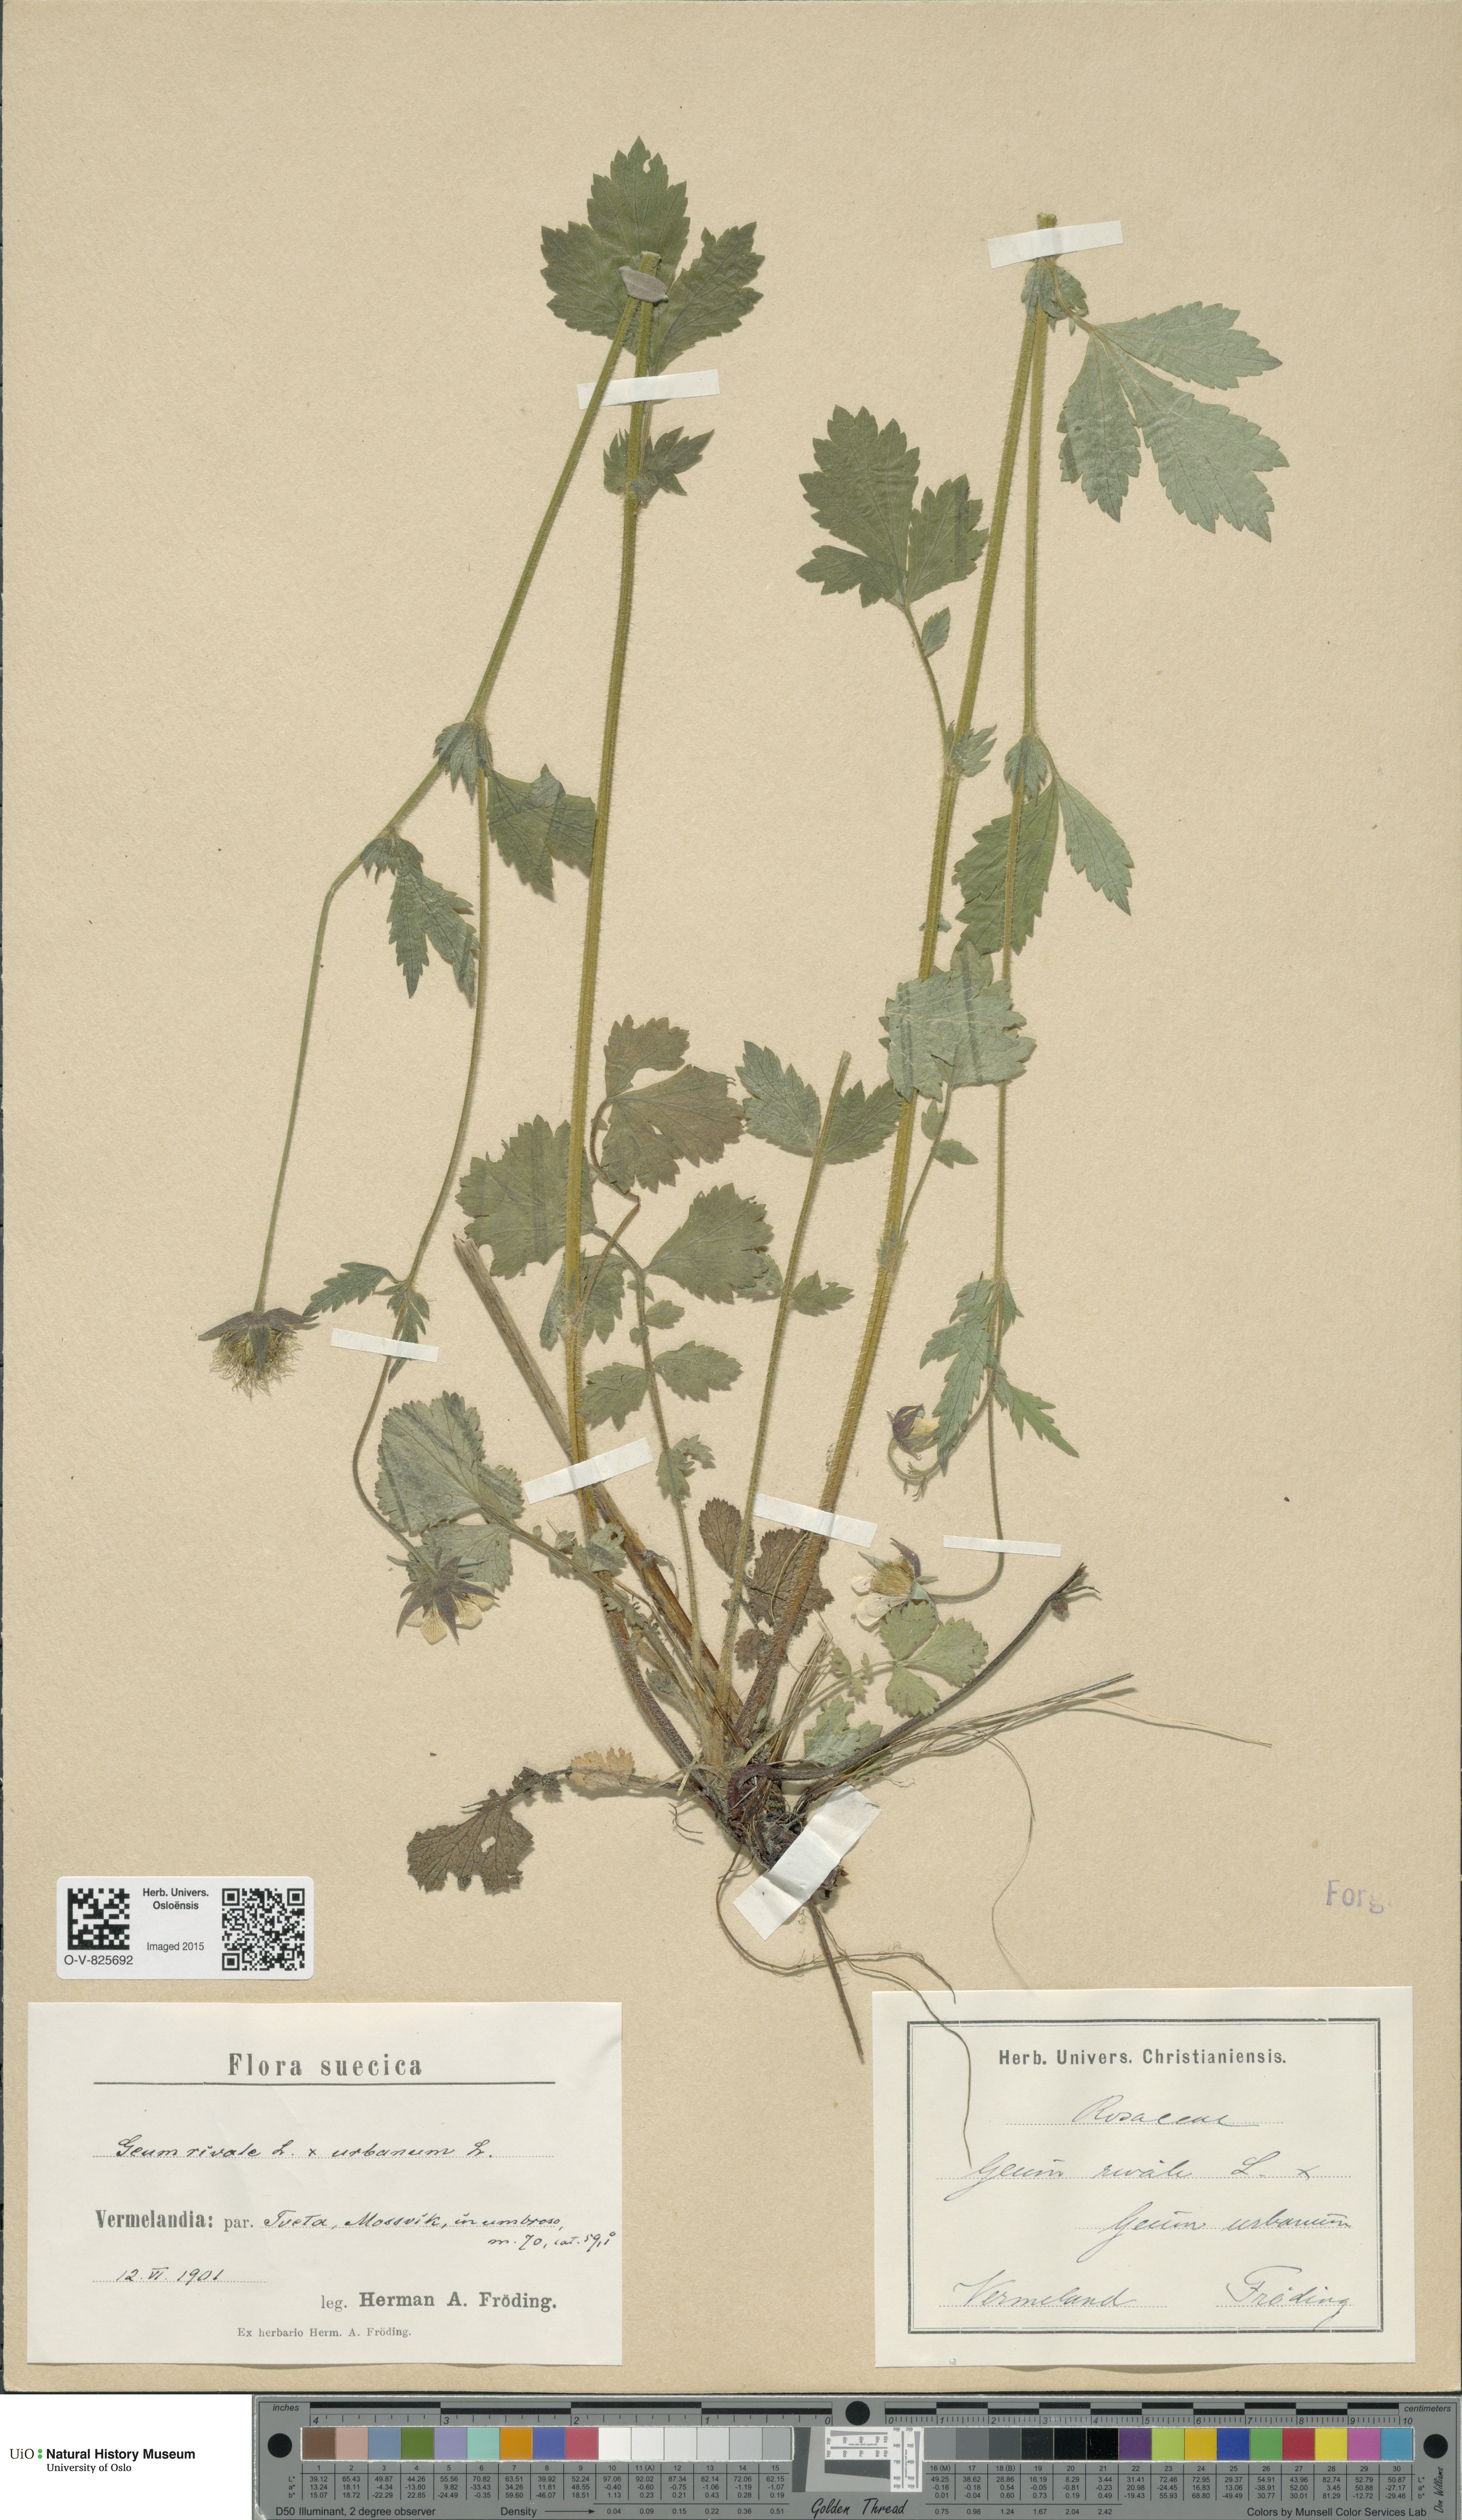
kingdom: Plantae
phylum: Tracheophyta
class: Magnoliopsida
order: Rosales
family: Rosaceae
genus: Geum
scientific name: Geum
